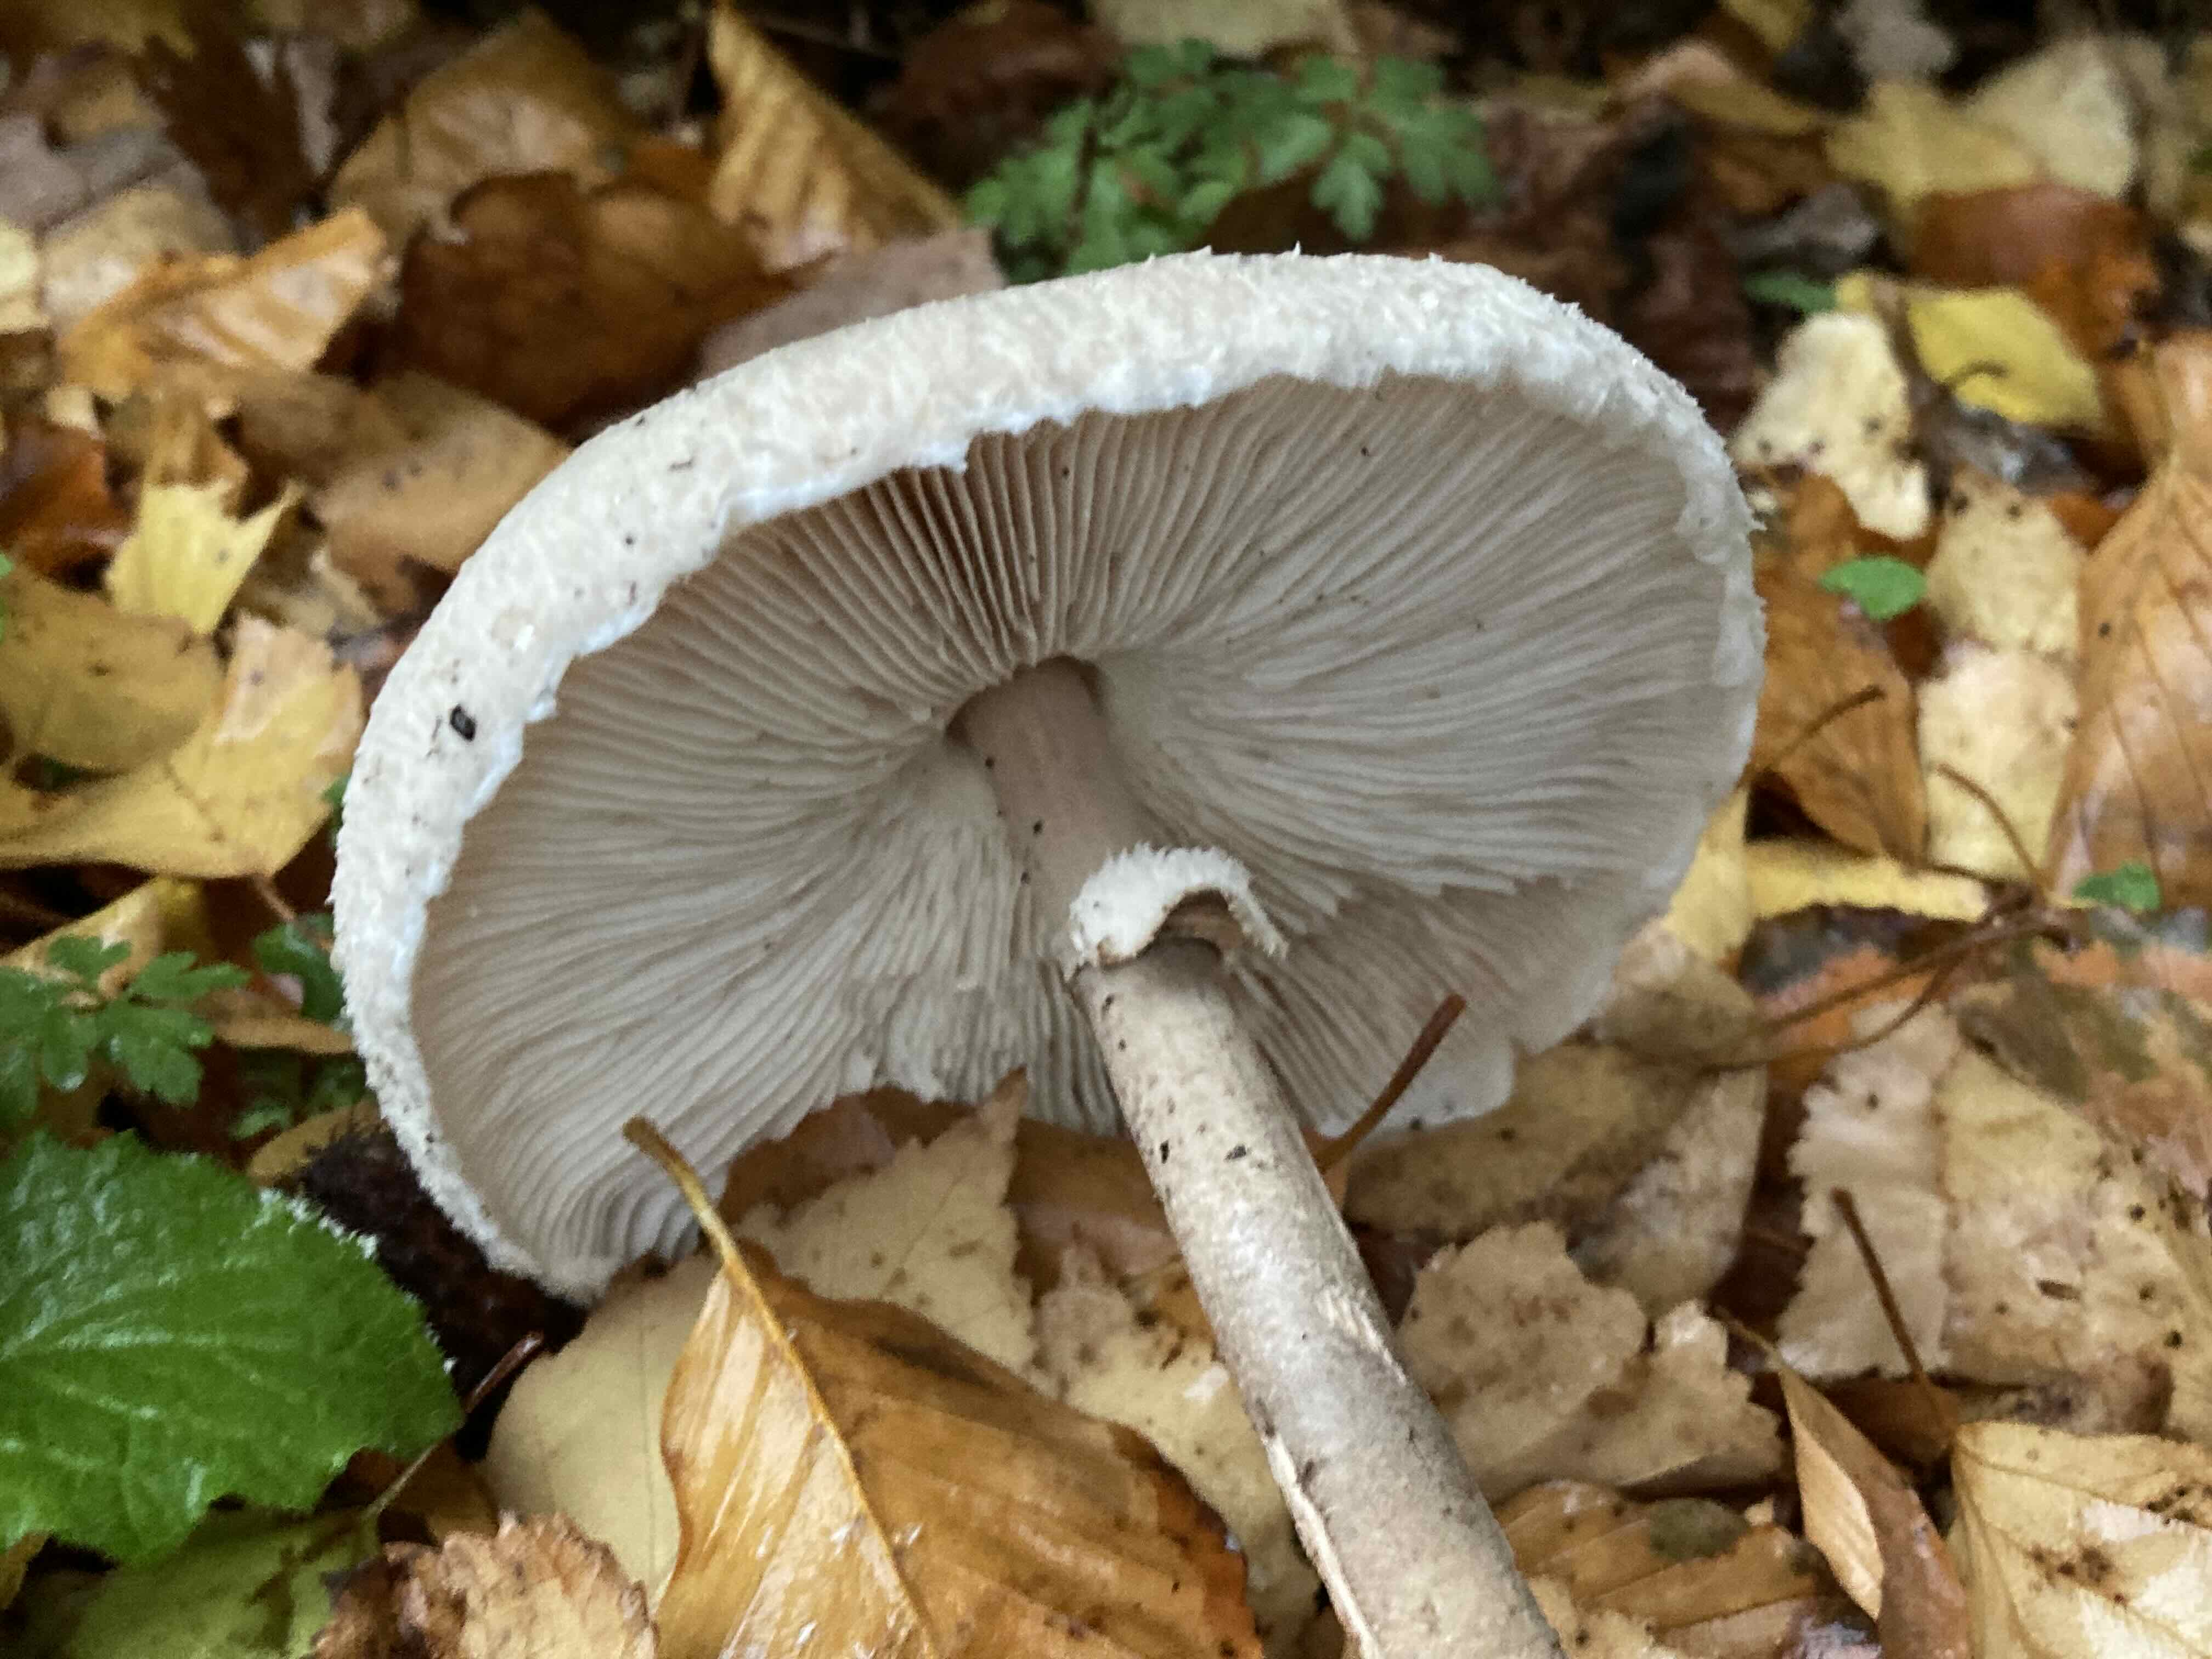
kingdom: Fungi
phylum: Basidiomycota
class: Agaricomycetes
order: Agaricales
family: Agaricaceae
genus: Macrolepiota
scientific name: Macrolepiota fuliginosa
